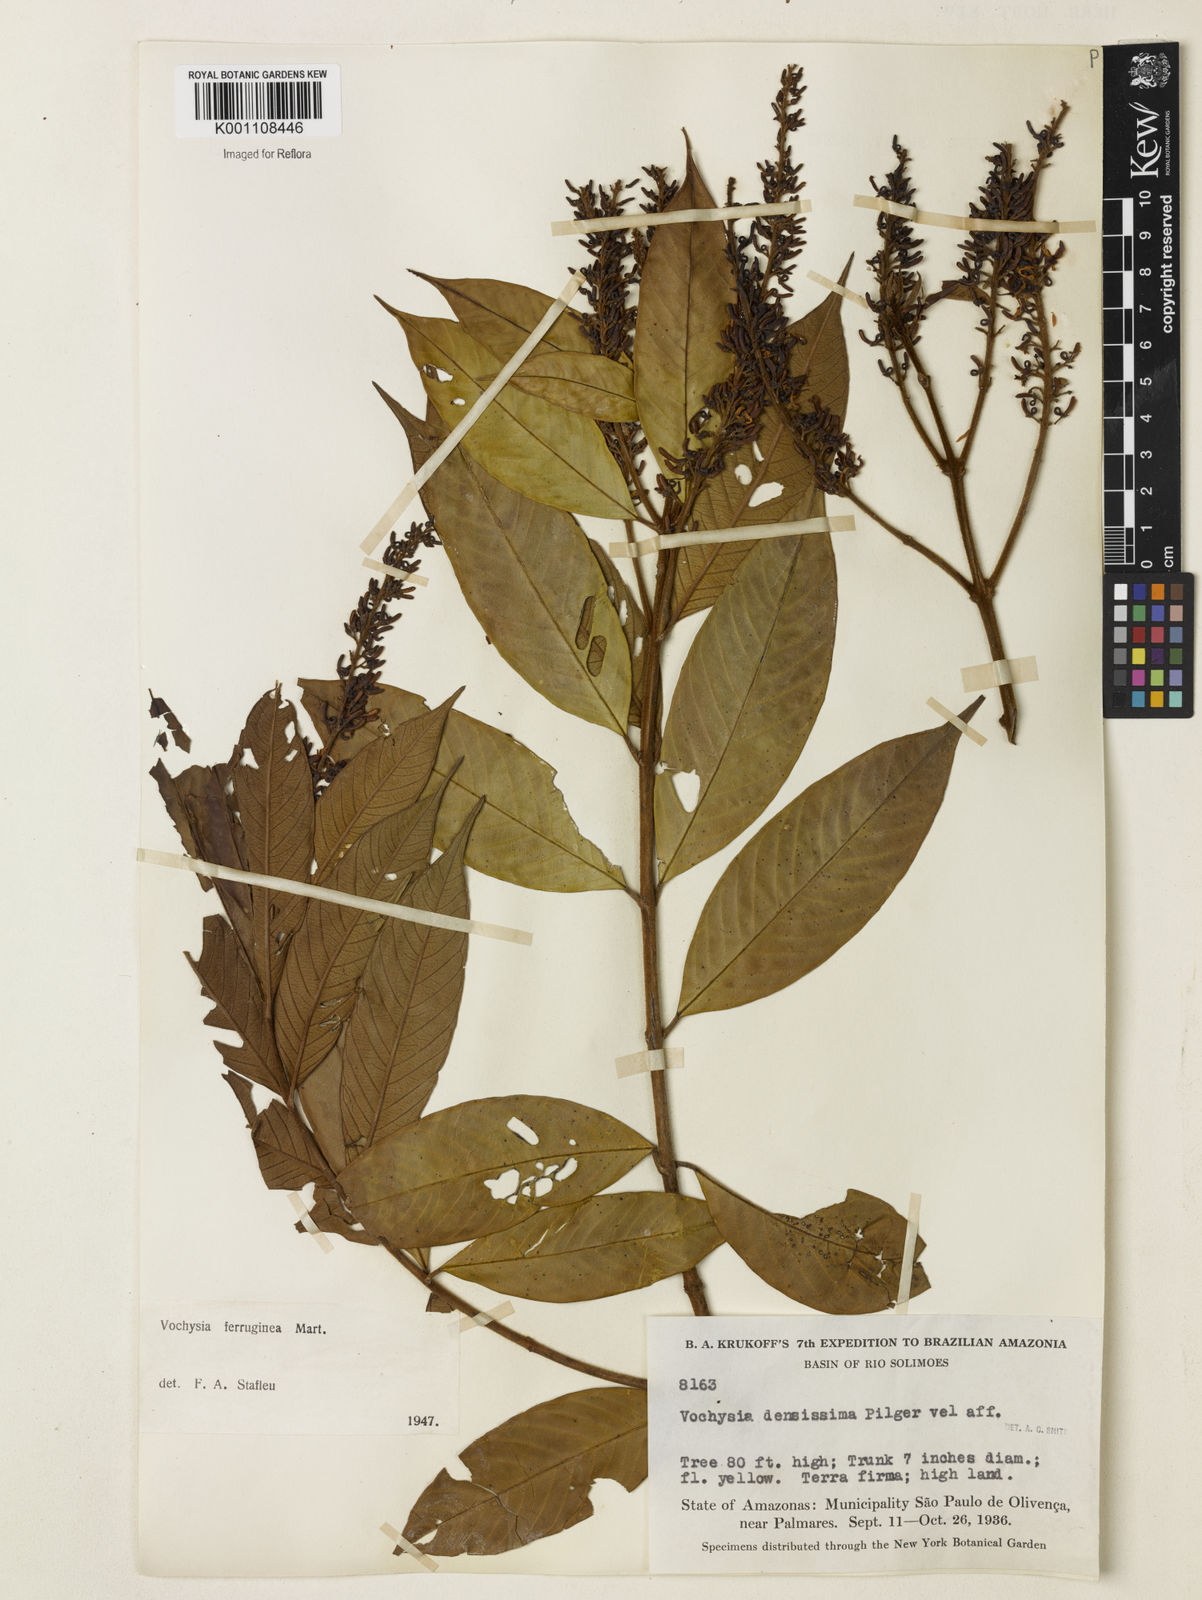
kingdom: Plantae
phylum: Tracheophyta
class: Magnoliopsida
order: Myrtales
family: Vochysiaceae
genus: Vochysia
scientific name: Vochysia ferruginea
